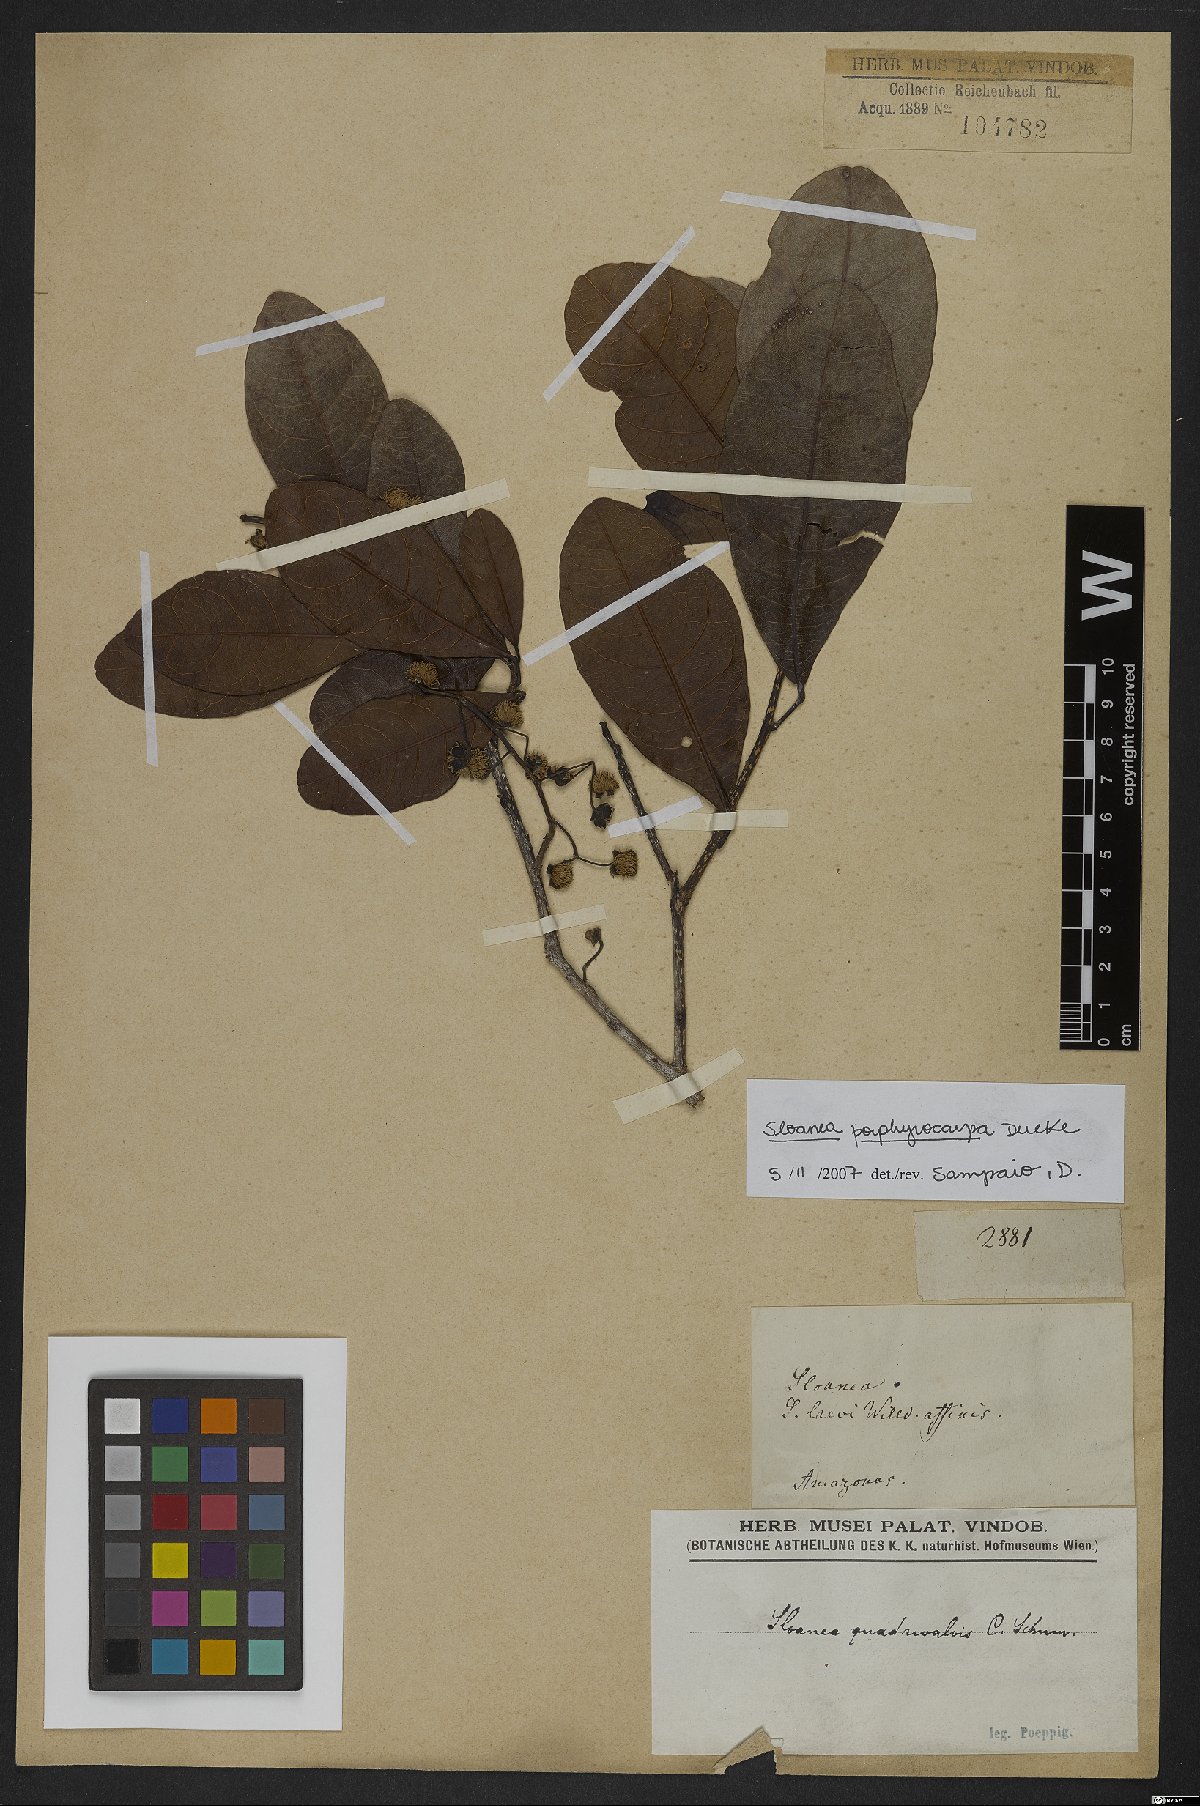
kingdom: Plantae
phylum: Tracheophyta
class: Magnoliopsida
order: Oxalidales
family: Elaeocarpaceae
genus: Sloanea
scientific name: Sloanea terniflora
